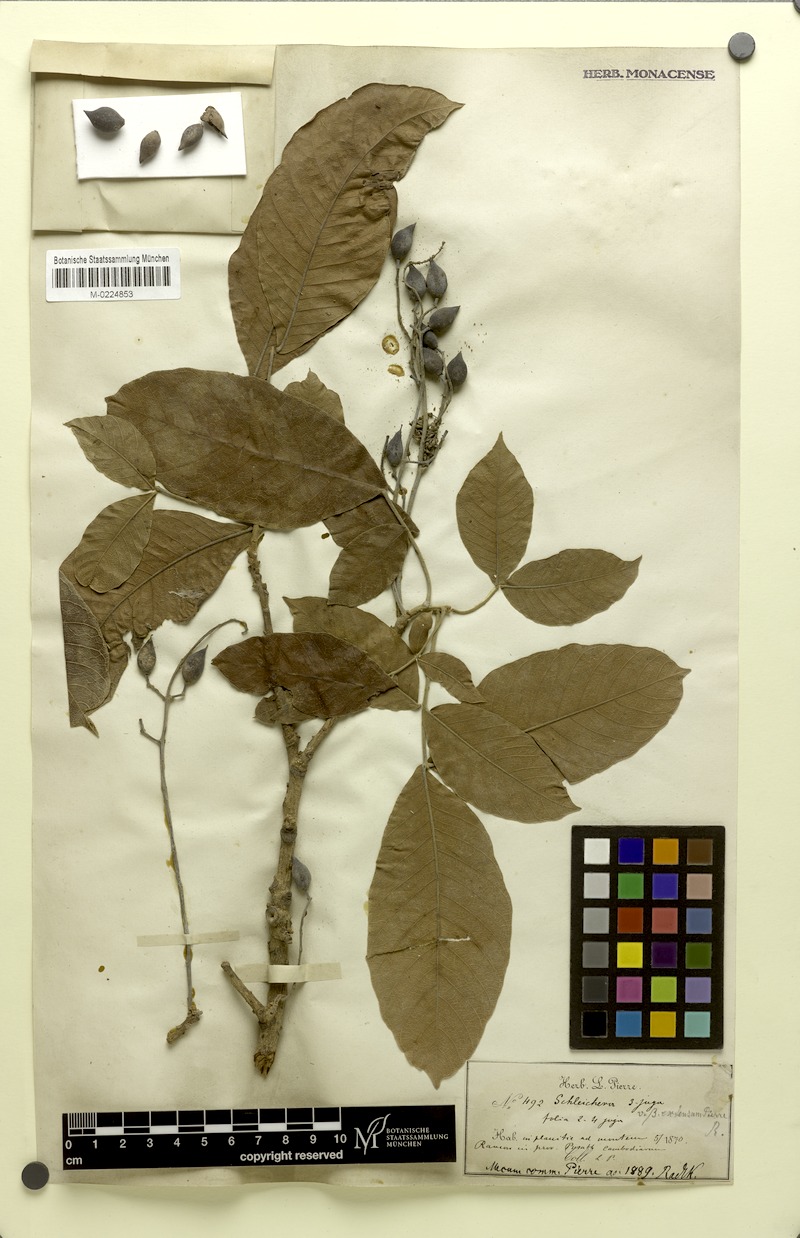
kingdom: Plantae
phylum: Tracheophyta
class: Magnoliopsida
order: Sapindales
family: Sapindaceae
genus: Schleichera
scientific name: Schleichera oleosa
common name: Malay lactree
